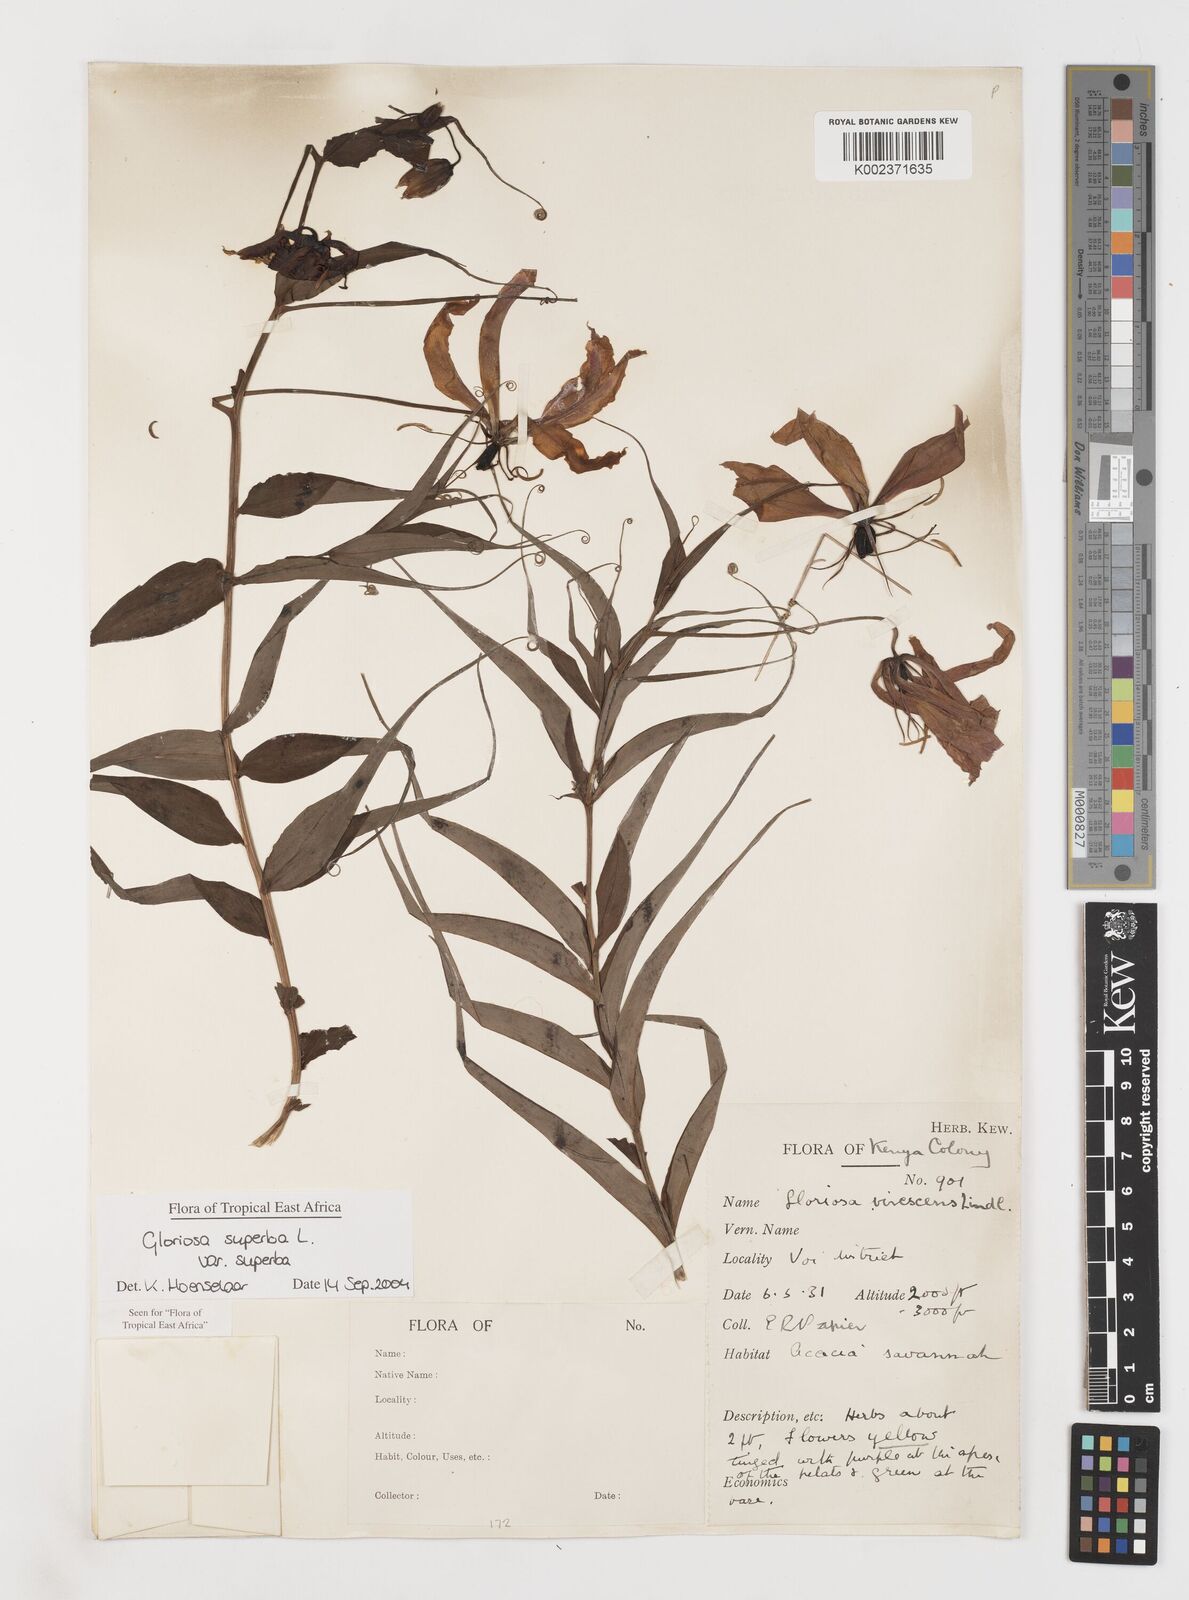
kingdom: Plantae
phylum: Tracheophyta
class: Liliopsida
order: Liliales
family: Colchicaceae
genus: Gloriosa
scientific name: Gloriosa simplex
